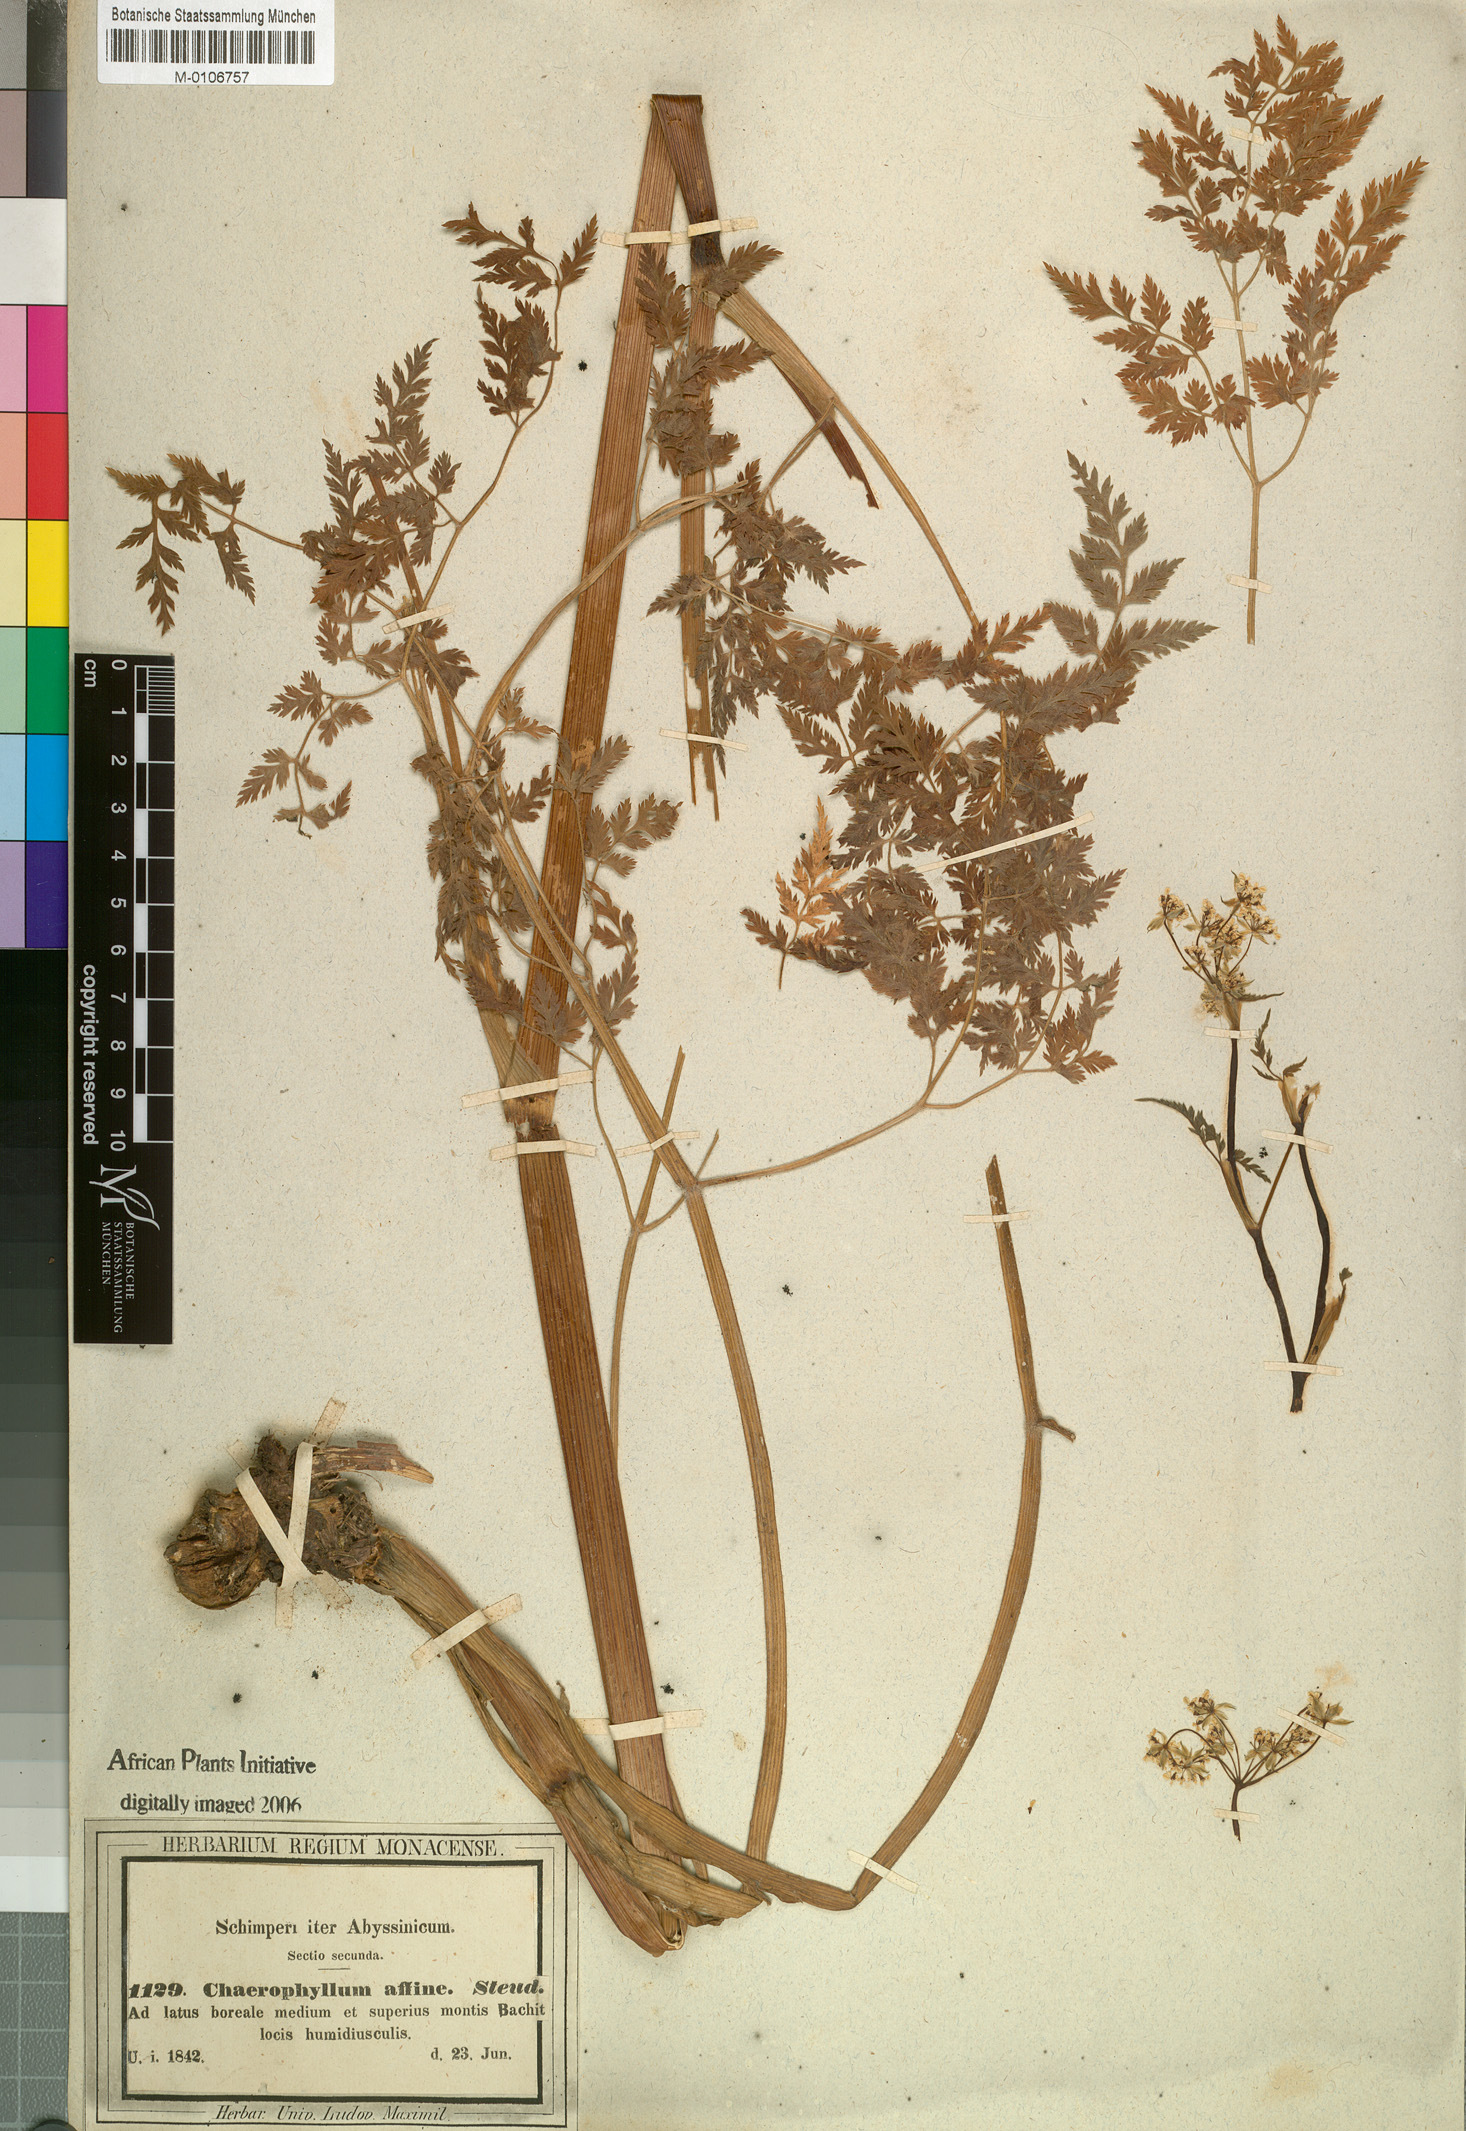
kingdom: Plantae
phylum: Tracheophyta
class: Magnoliopsida
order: Apiales
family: Apiaceae
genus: Anthriscus
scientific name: Anthriscus sylvestris
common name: Cow parsley
